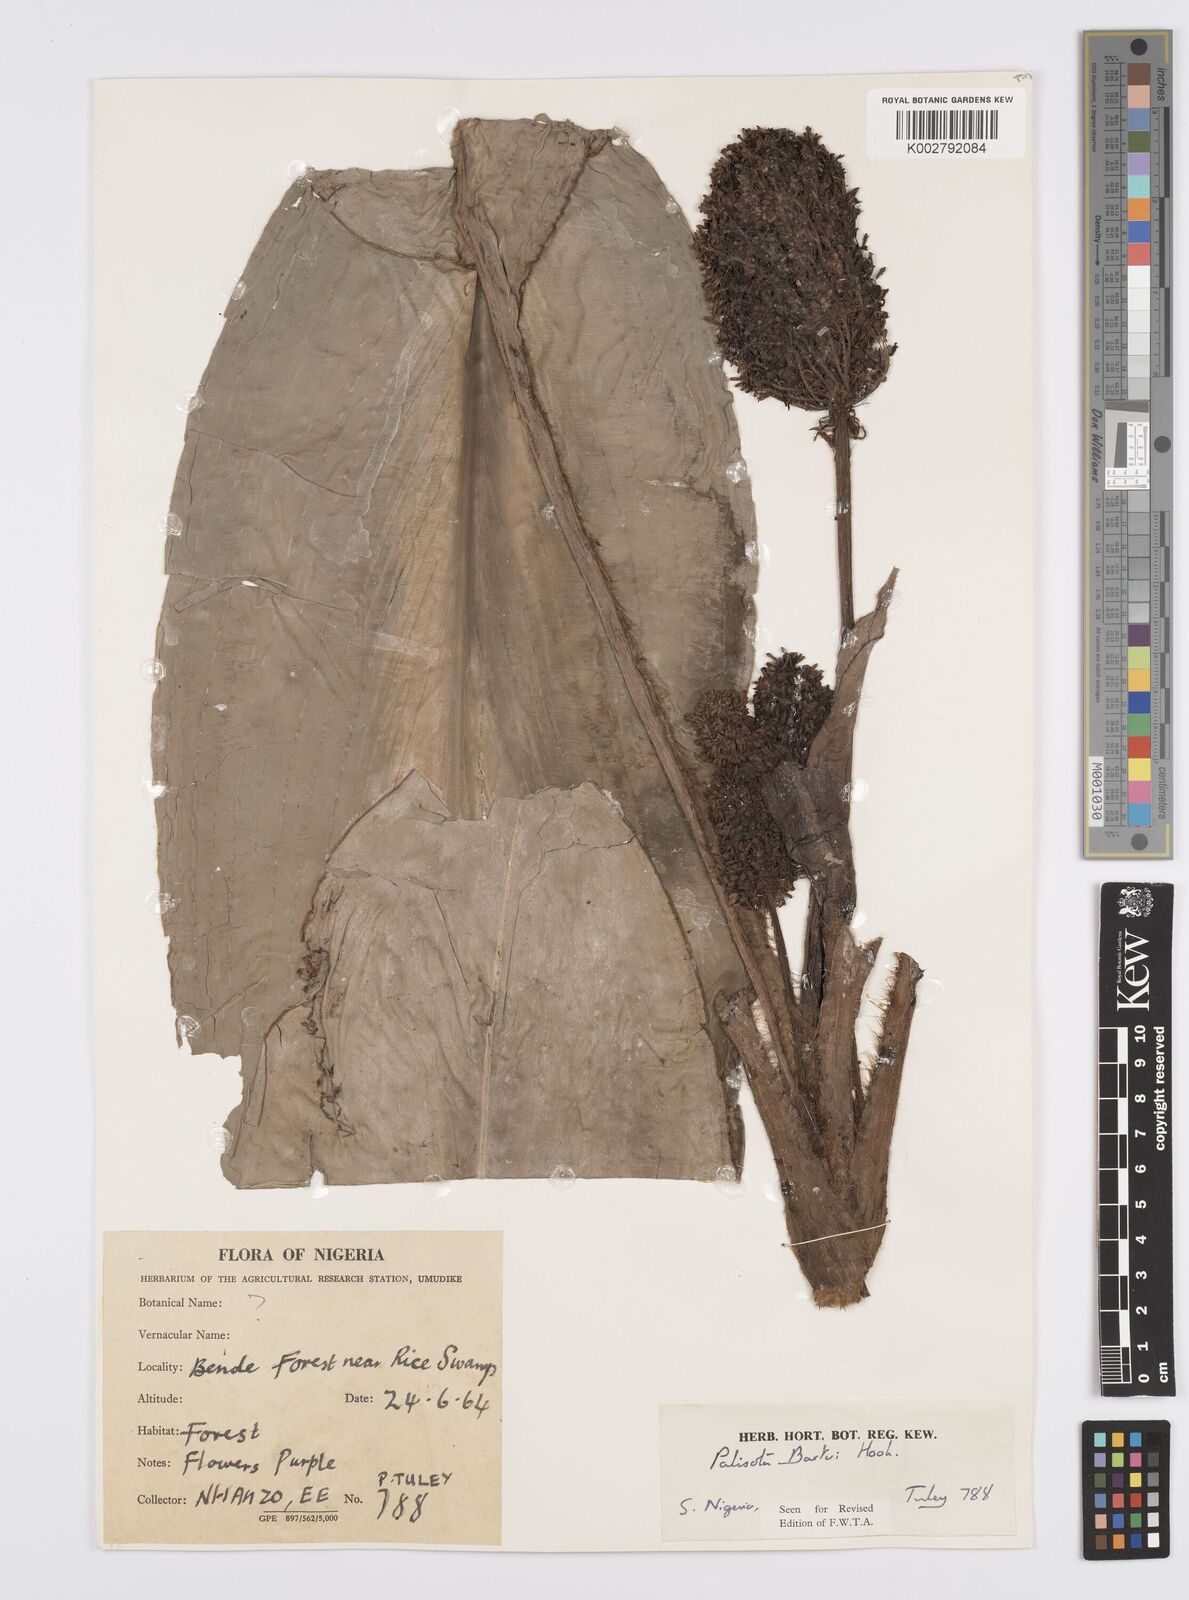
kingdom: Plantae
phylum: Tracheophyta
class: Liliopsida
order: Commelinales
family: Commelinaceae
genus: Palisota
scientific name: Palisota barteri
